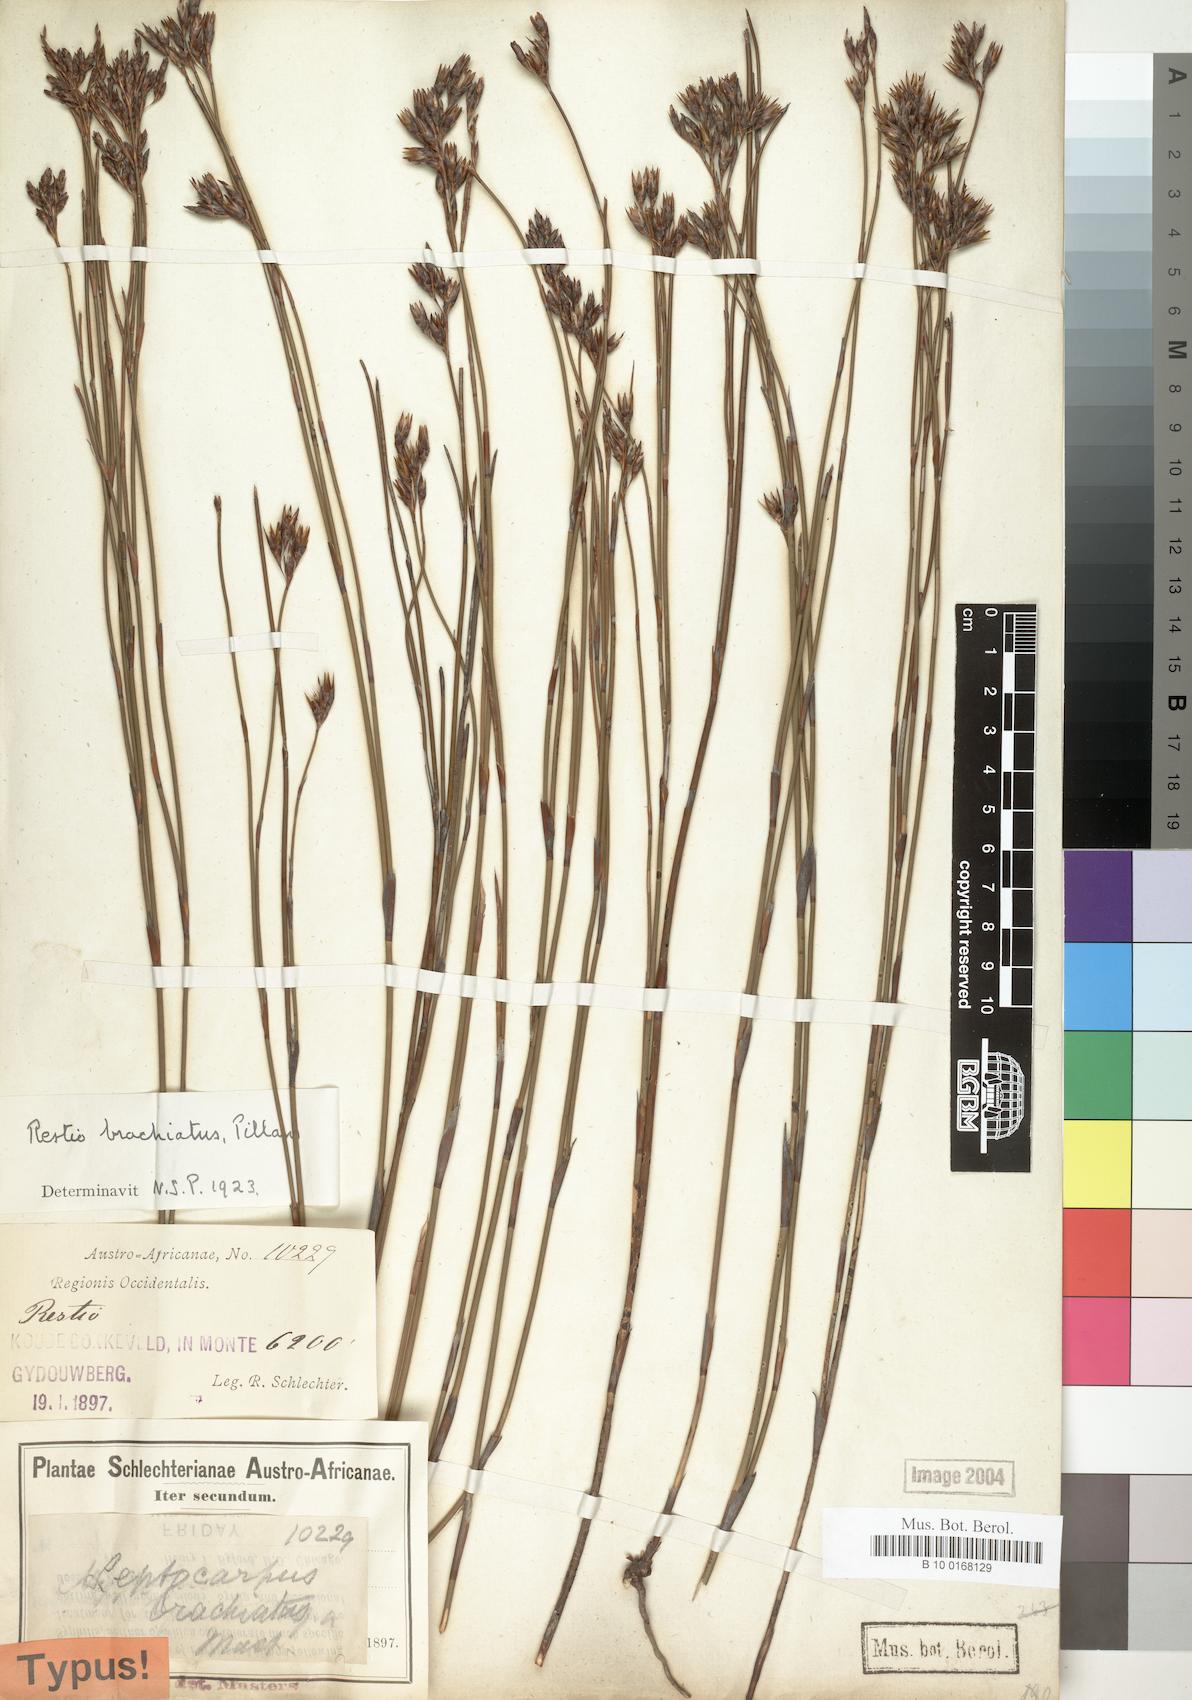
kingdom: Plantae
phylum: Tracheophyta
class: Liliopsida
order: Poales
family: Restionaceae
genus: Restio
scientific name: Restio brachiatus
